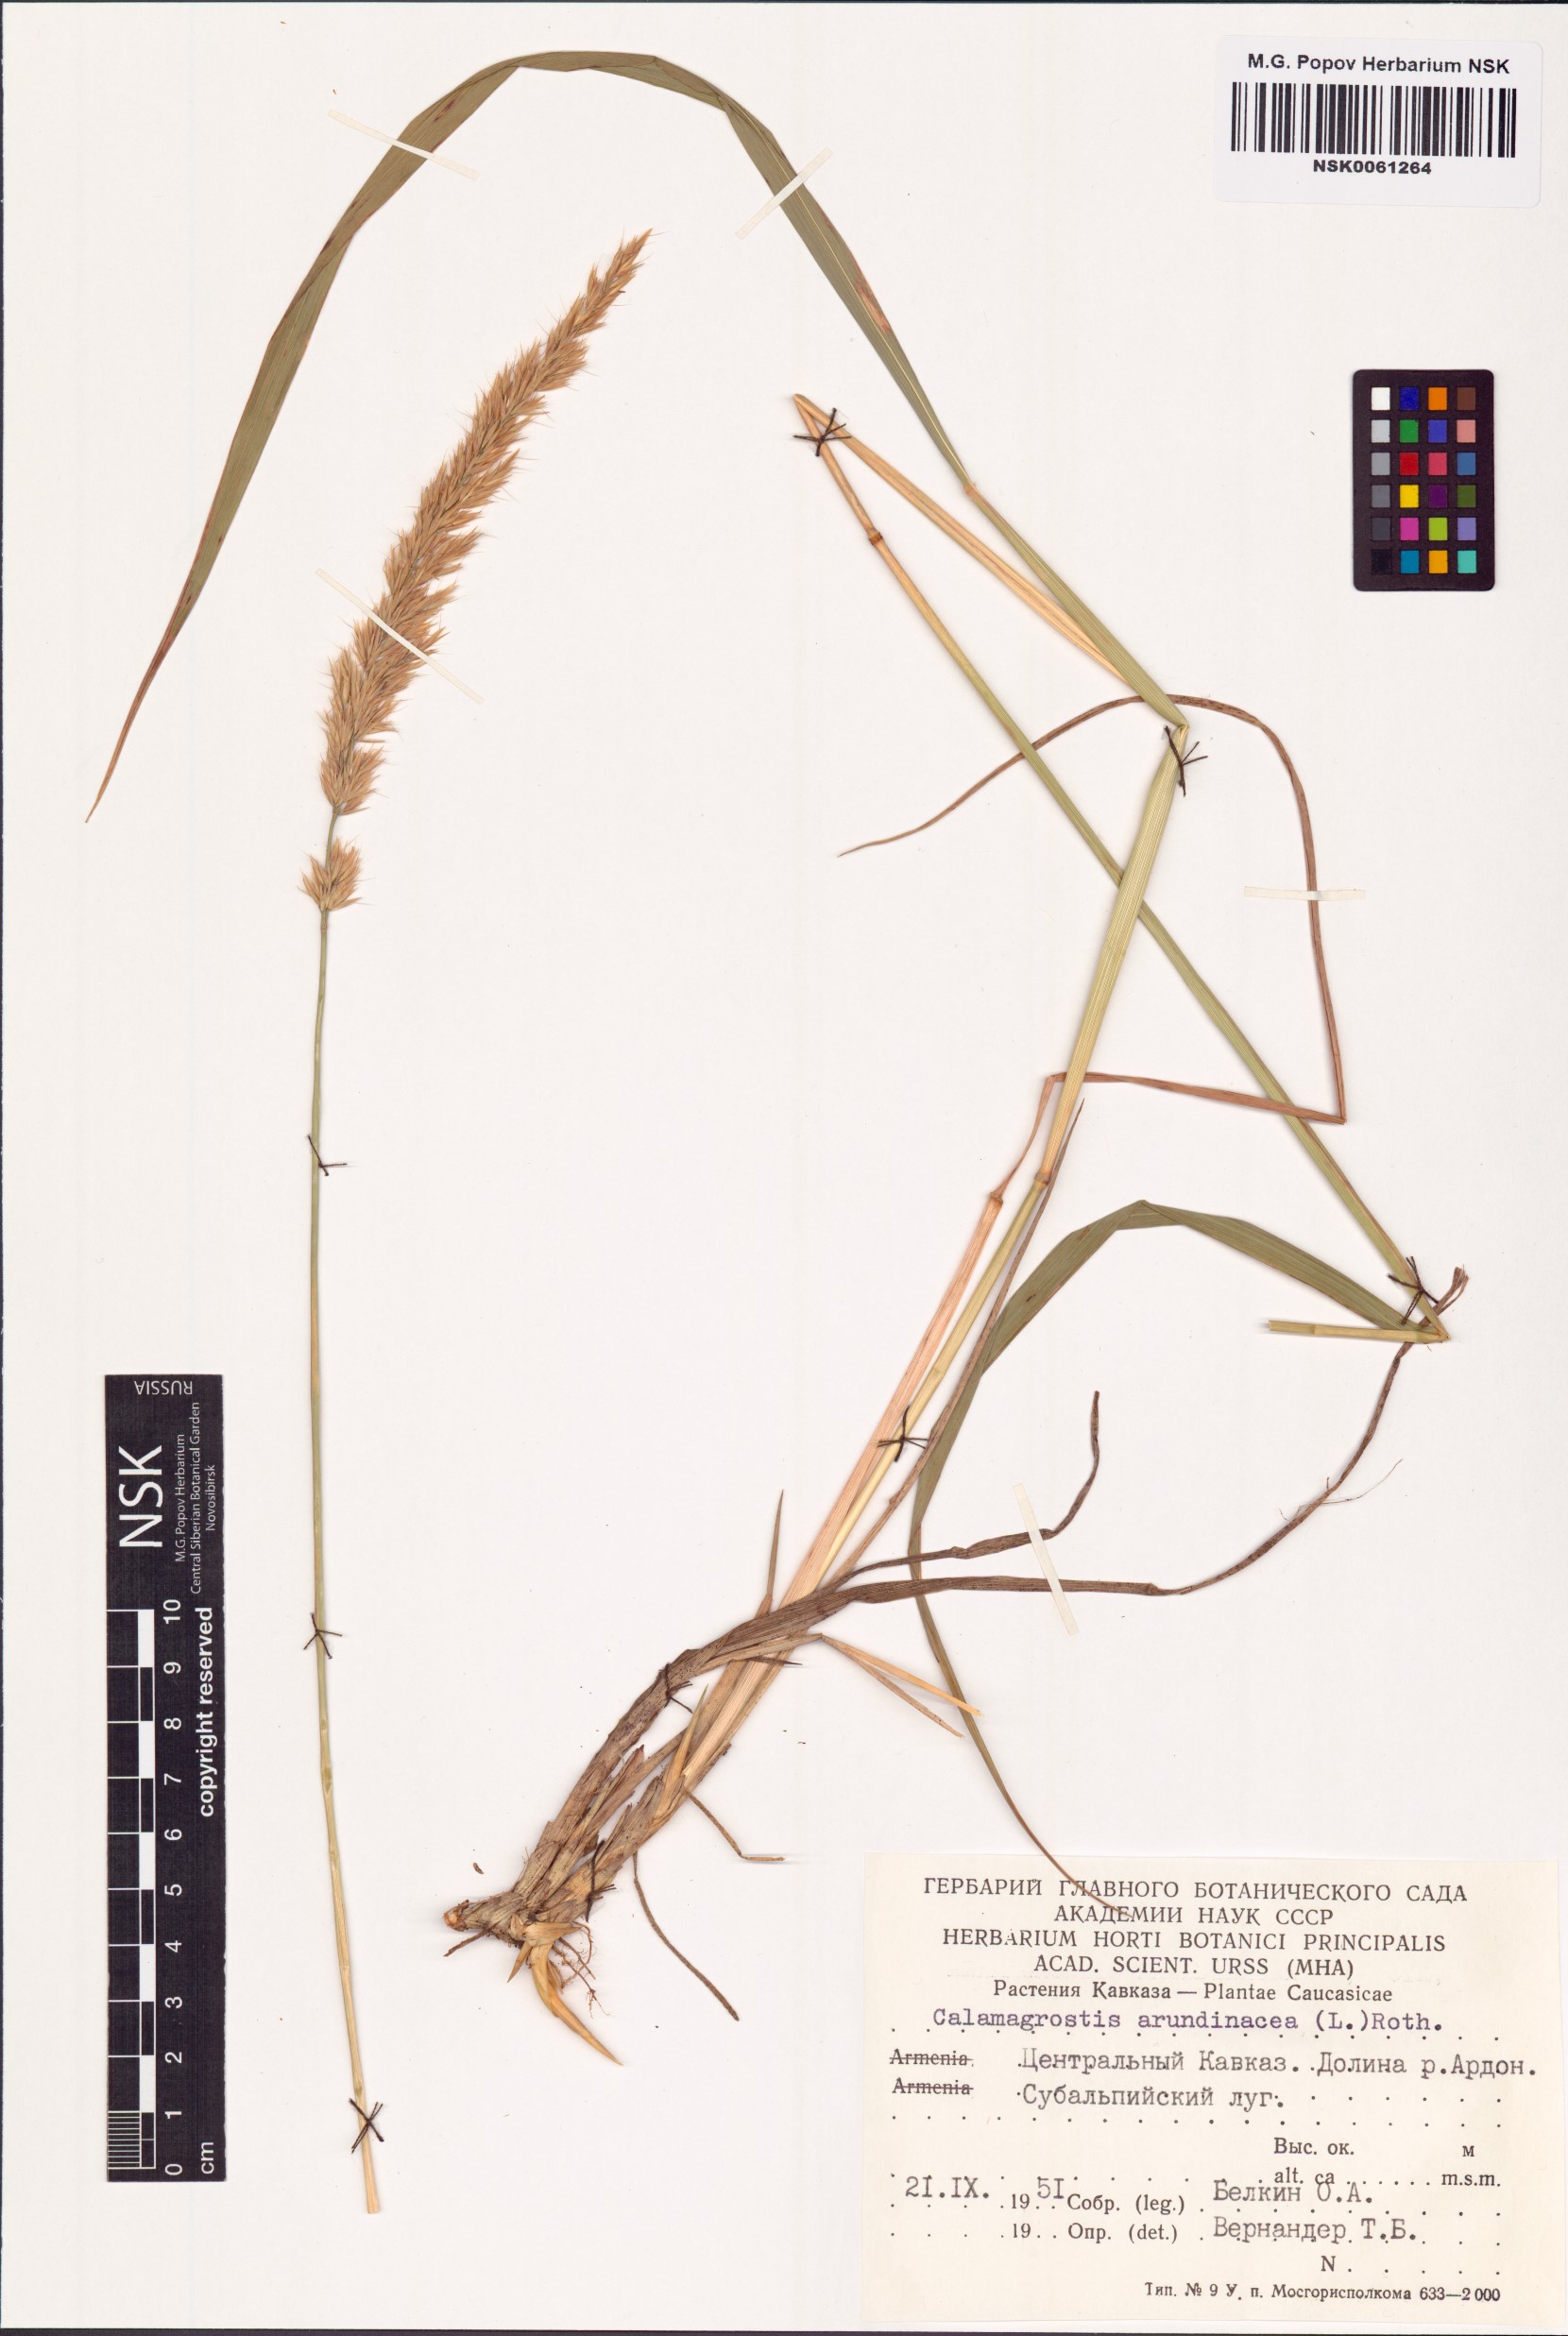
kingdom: Plantae
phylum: Tracheophyta
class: Liliopsida
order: Poales
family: Poaceae
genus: Calamagrostis
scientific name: Calamagrostis arundinacea
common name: Metskastik
